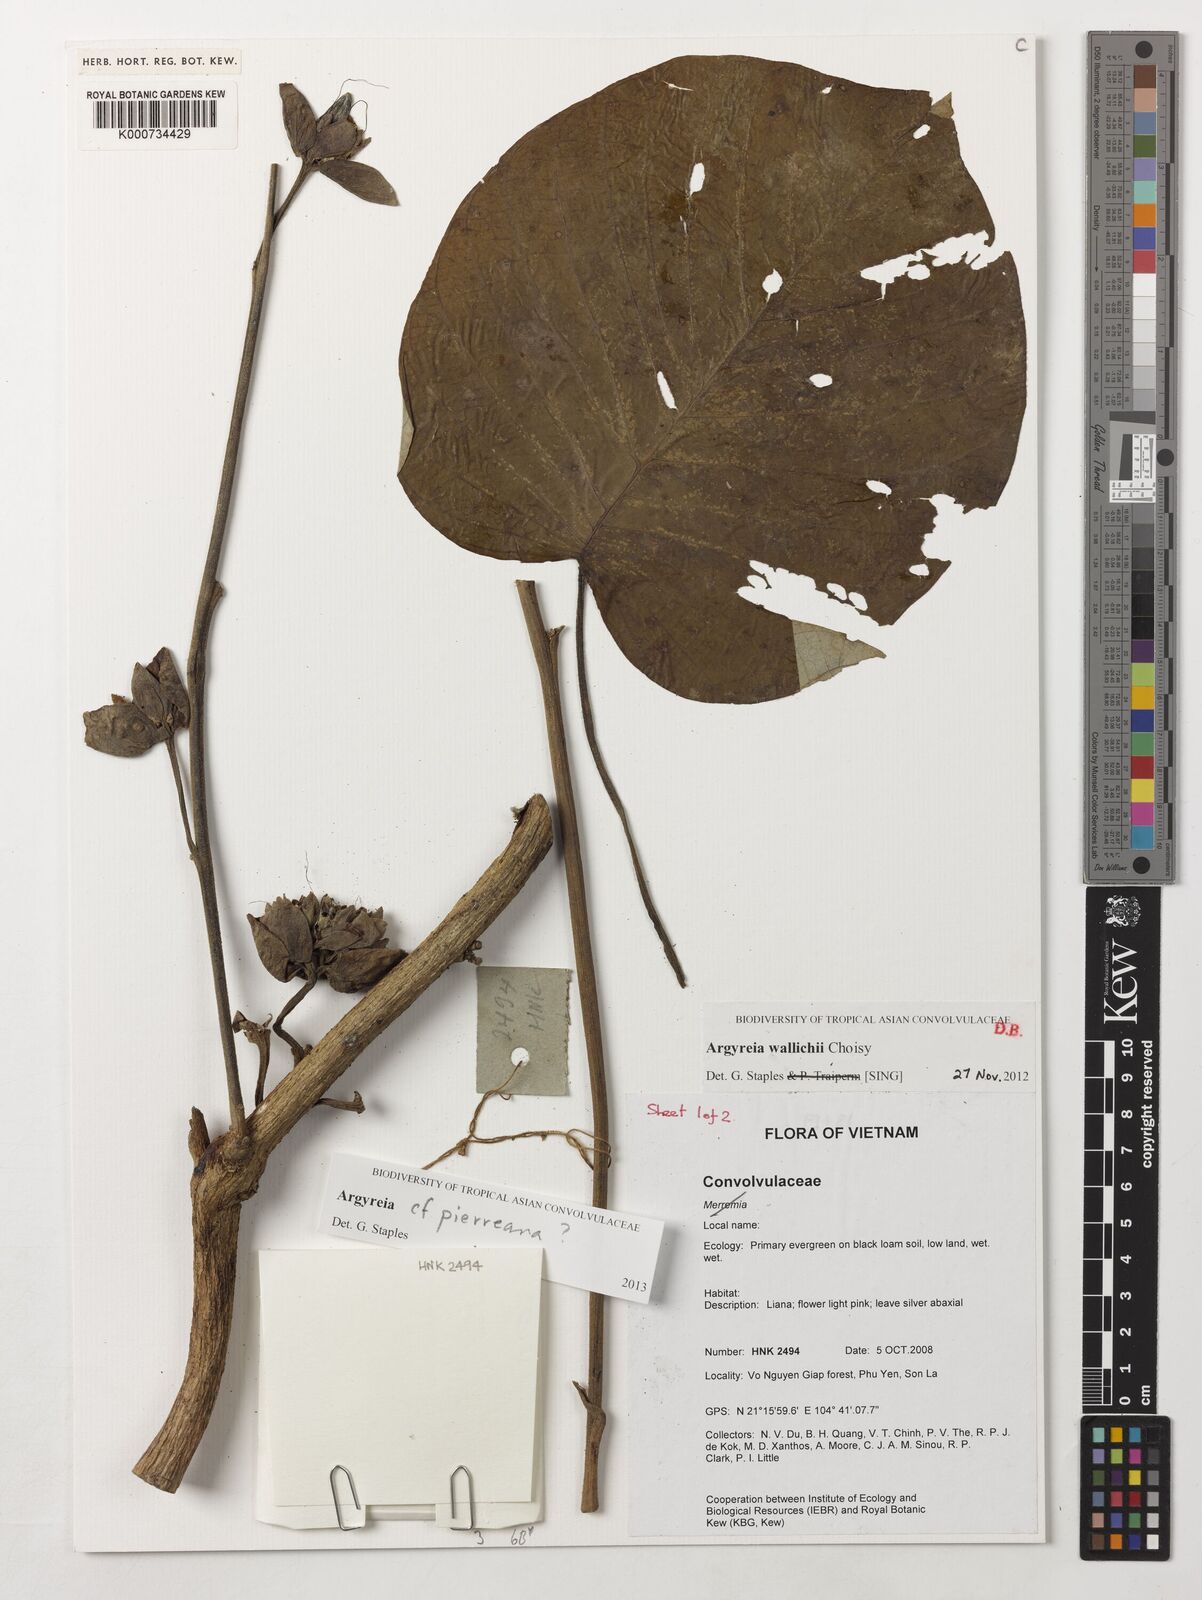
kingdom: Plantae
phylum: Tracheophyta
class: Magnoliopsida
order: Solanales
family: Convolvulaceae
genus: Argyreia
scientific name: Argyreia wallichii
